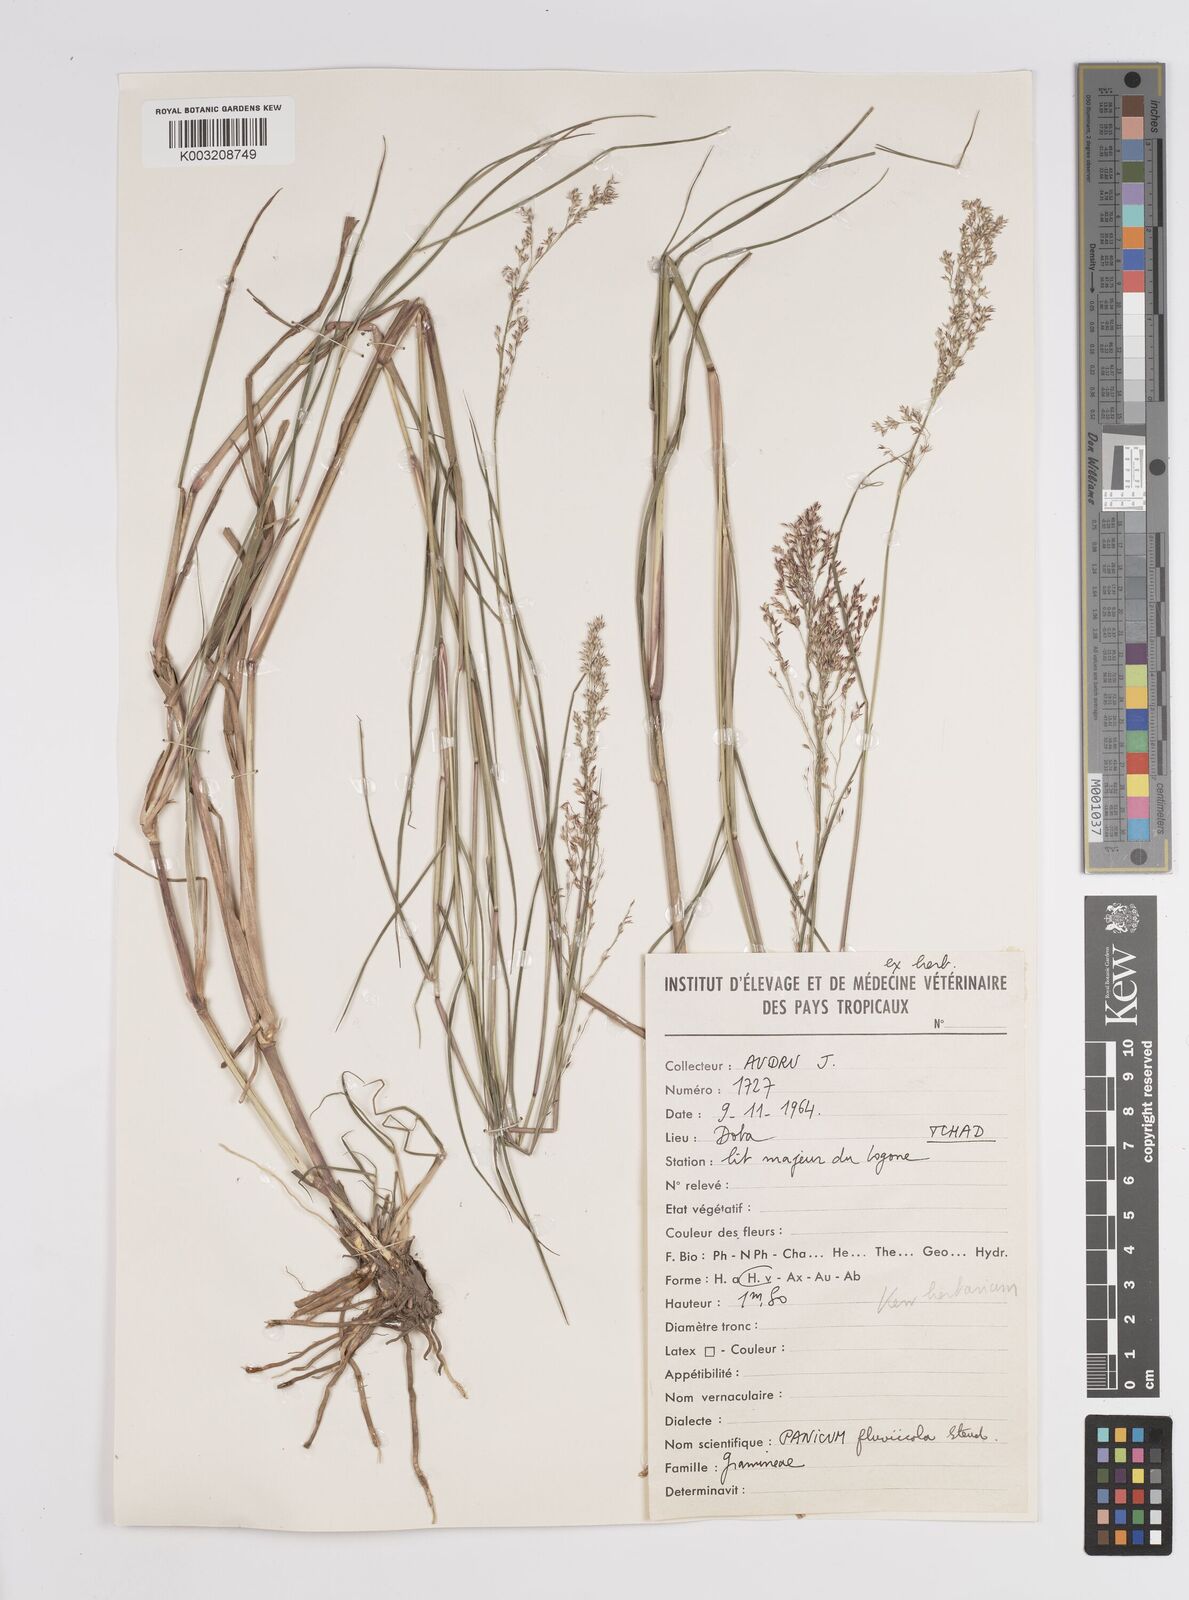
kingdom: Plantae
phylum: Tracheophyta
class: Liliopsida
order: Poales
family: Poaceae
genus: Panicum
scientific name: Panicum fluviicola
